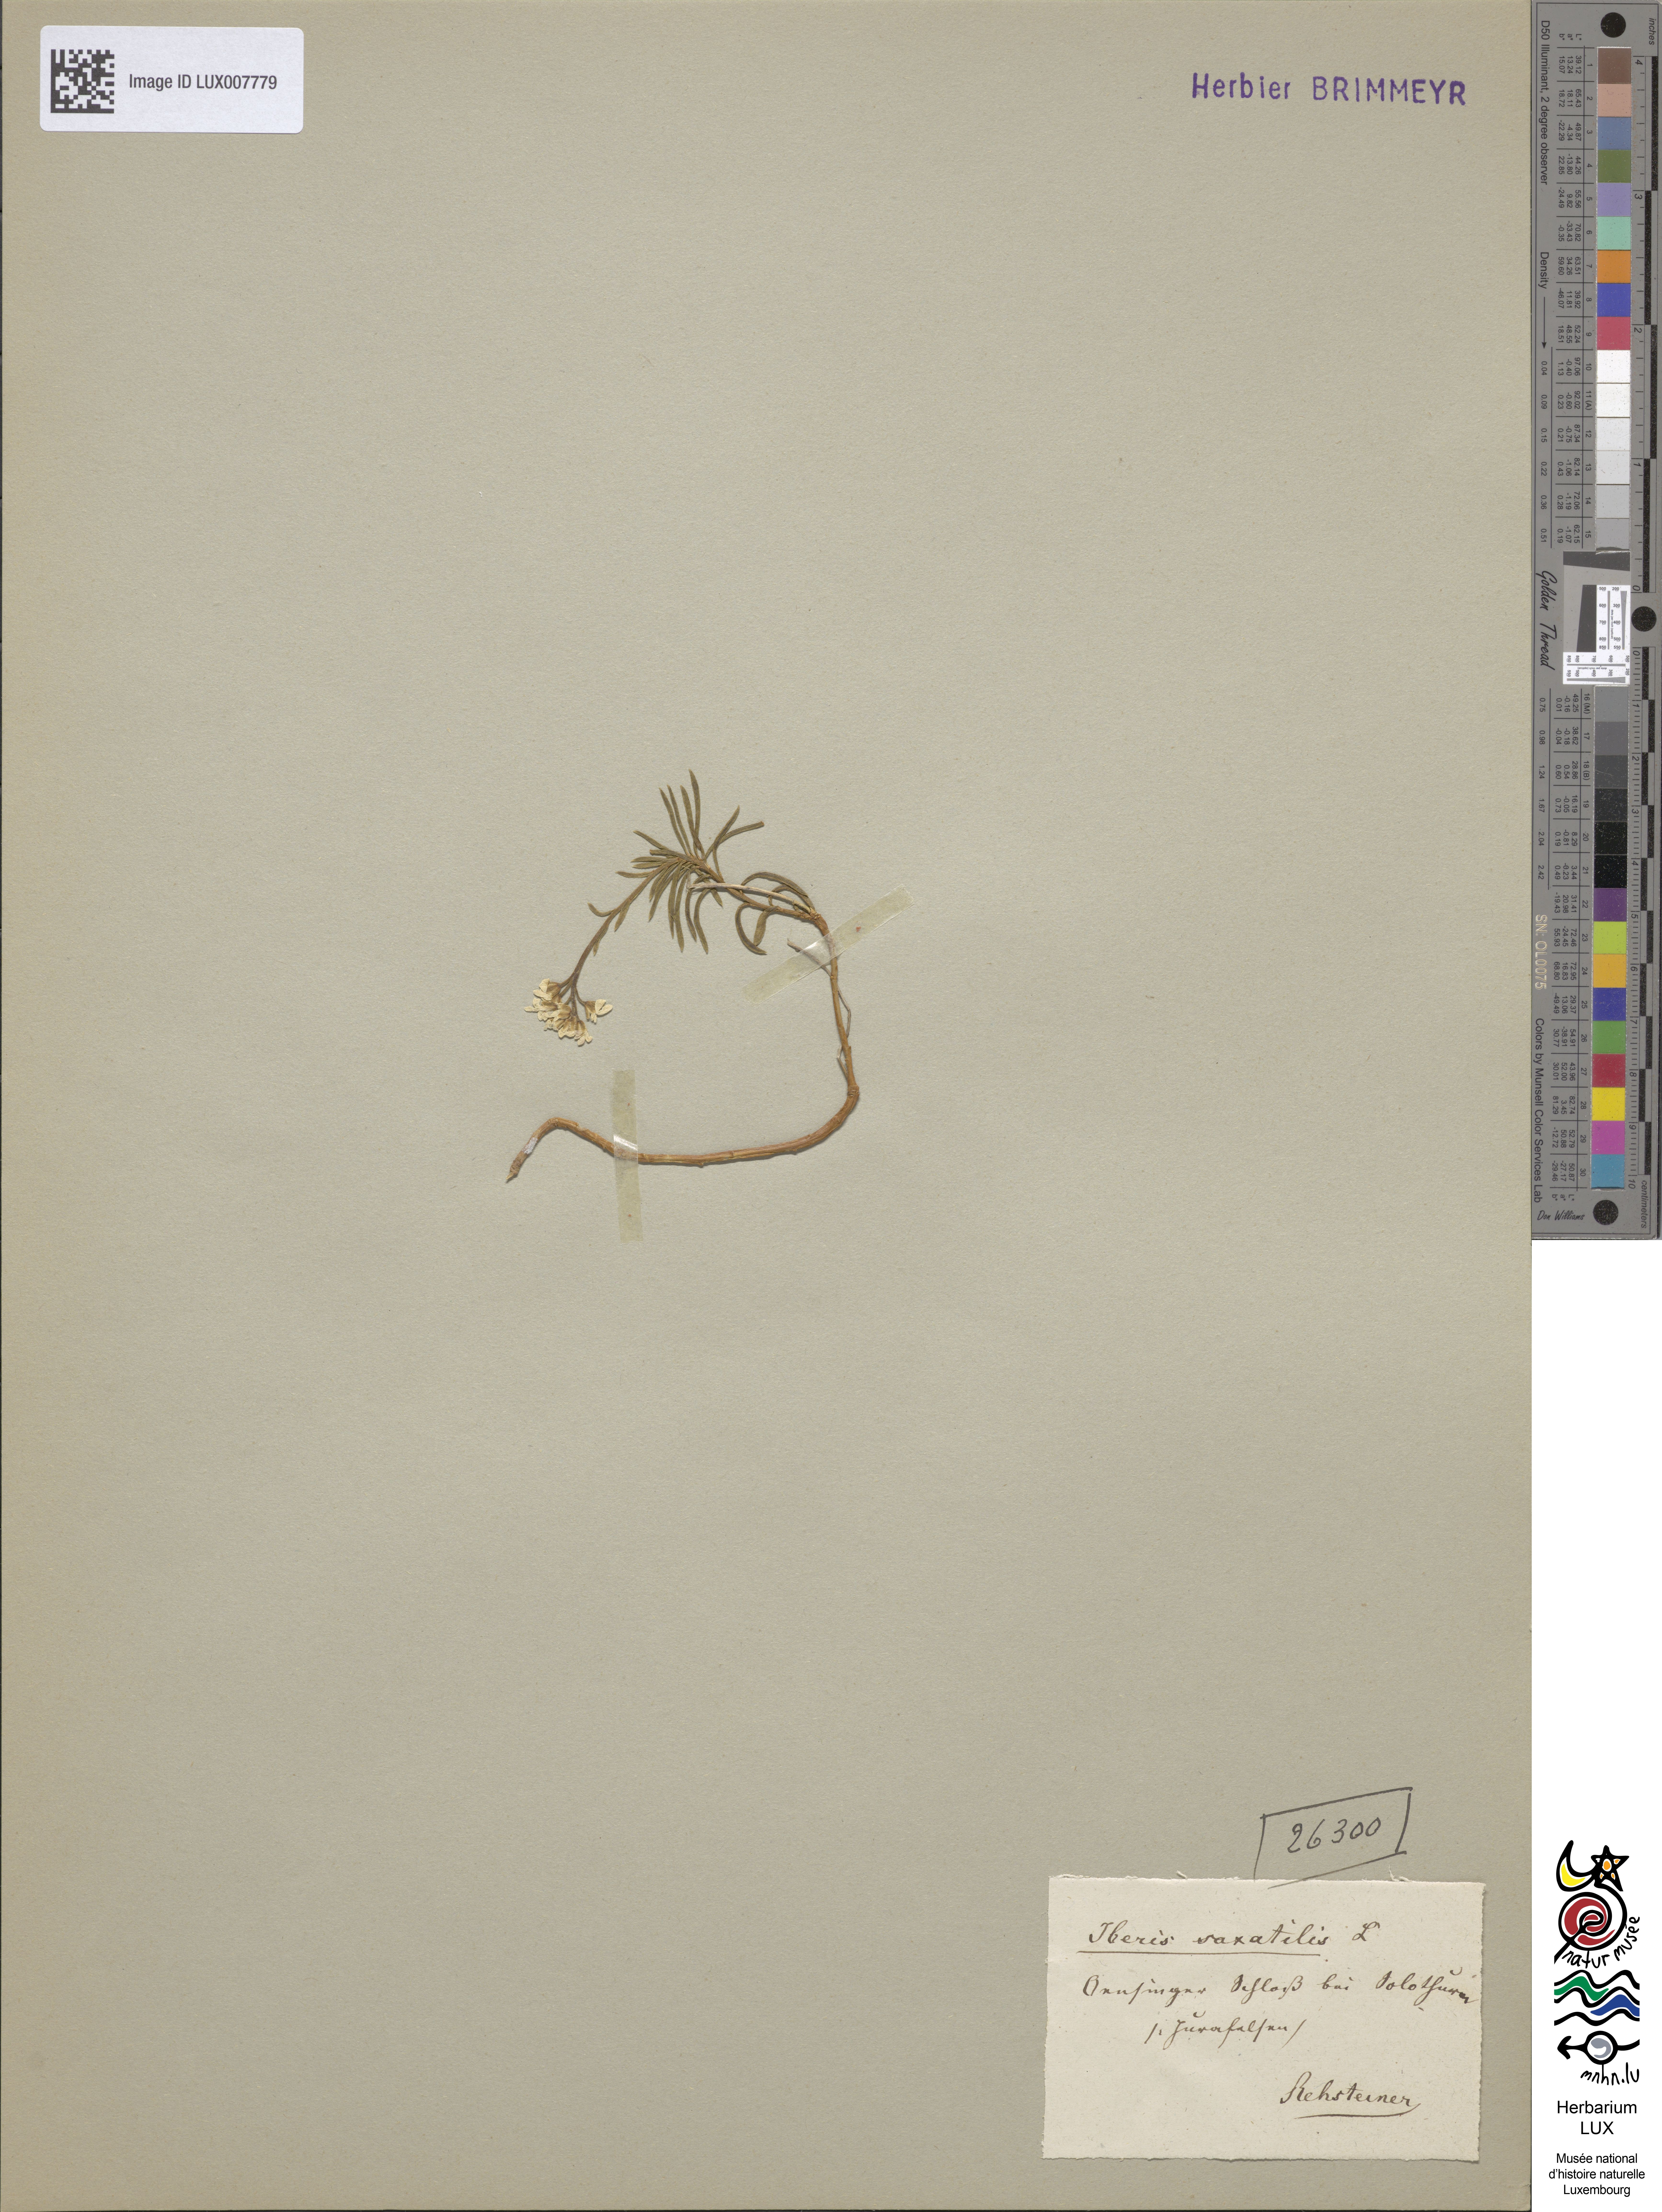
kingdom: Plantae
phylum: Tracheophyta
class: Magnoliopsida
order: Brassicales
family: Brassicaceae
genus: Iberis
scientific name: Iberis saxatilis
